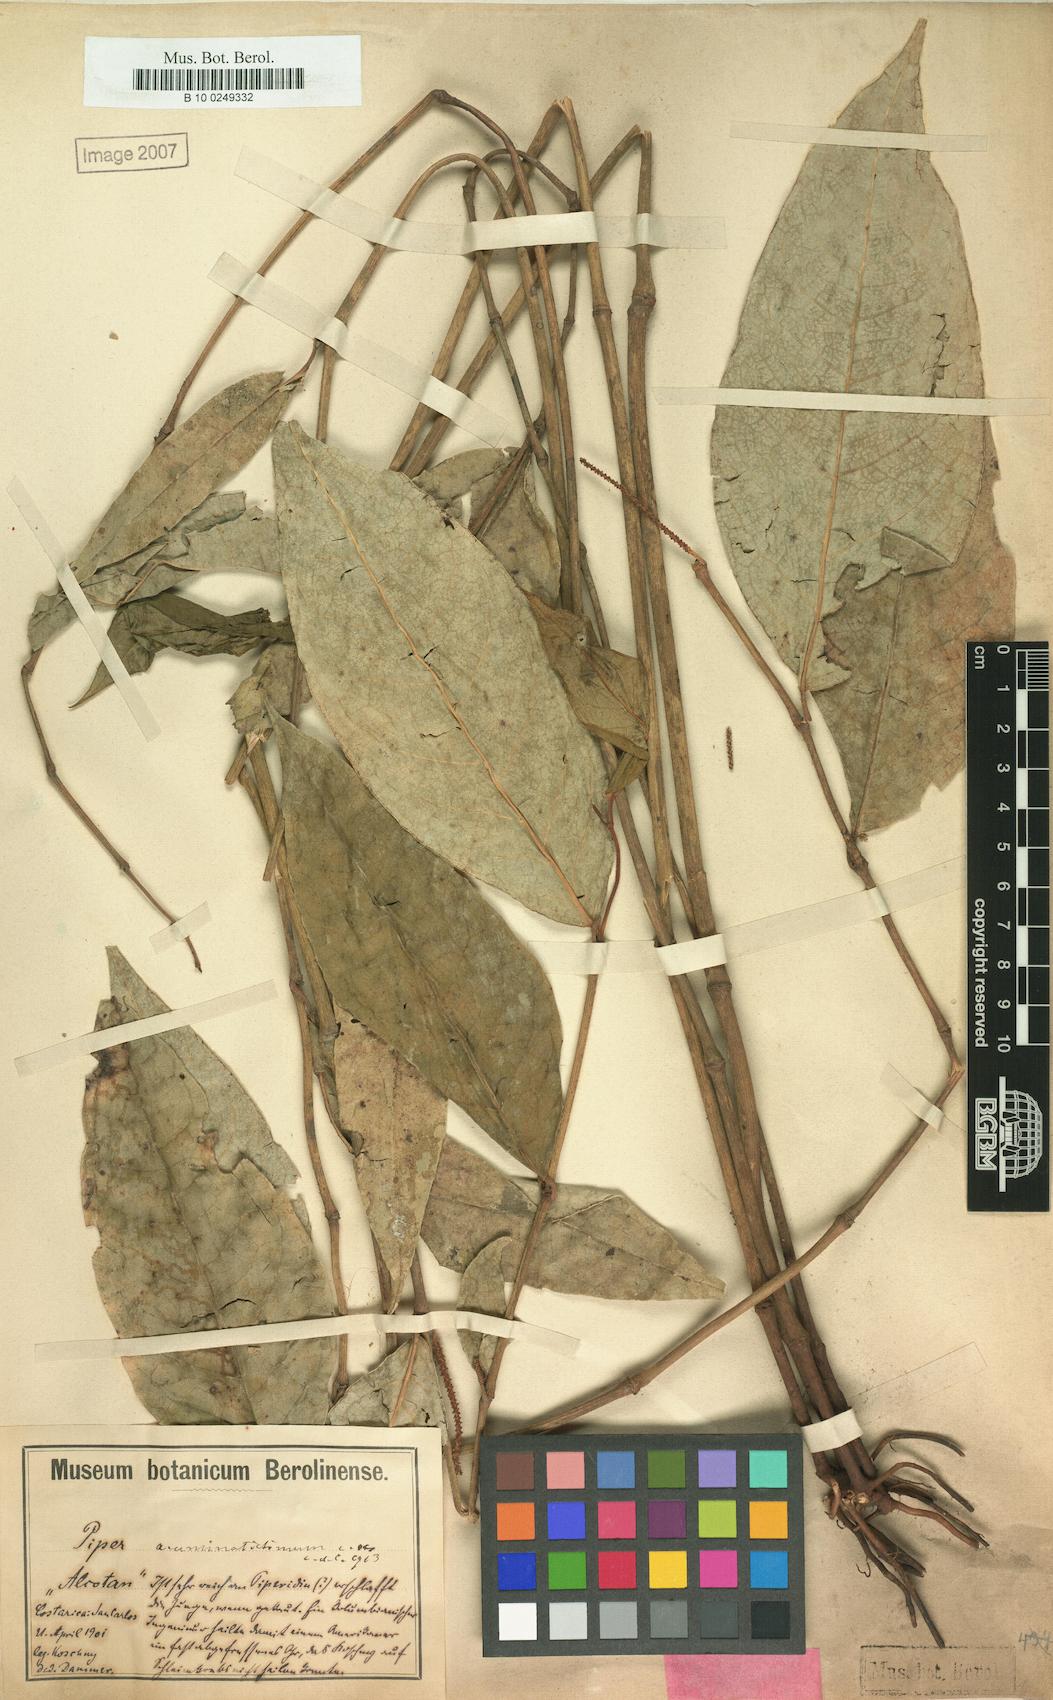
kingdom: Plantae
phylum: Tracheophyta
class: Magnoliopsida
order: Piperales
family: Piperaceae
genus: Piper
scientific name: Piper darienense
